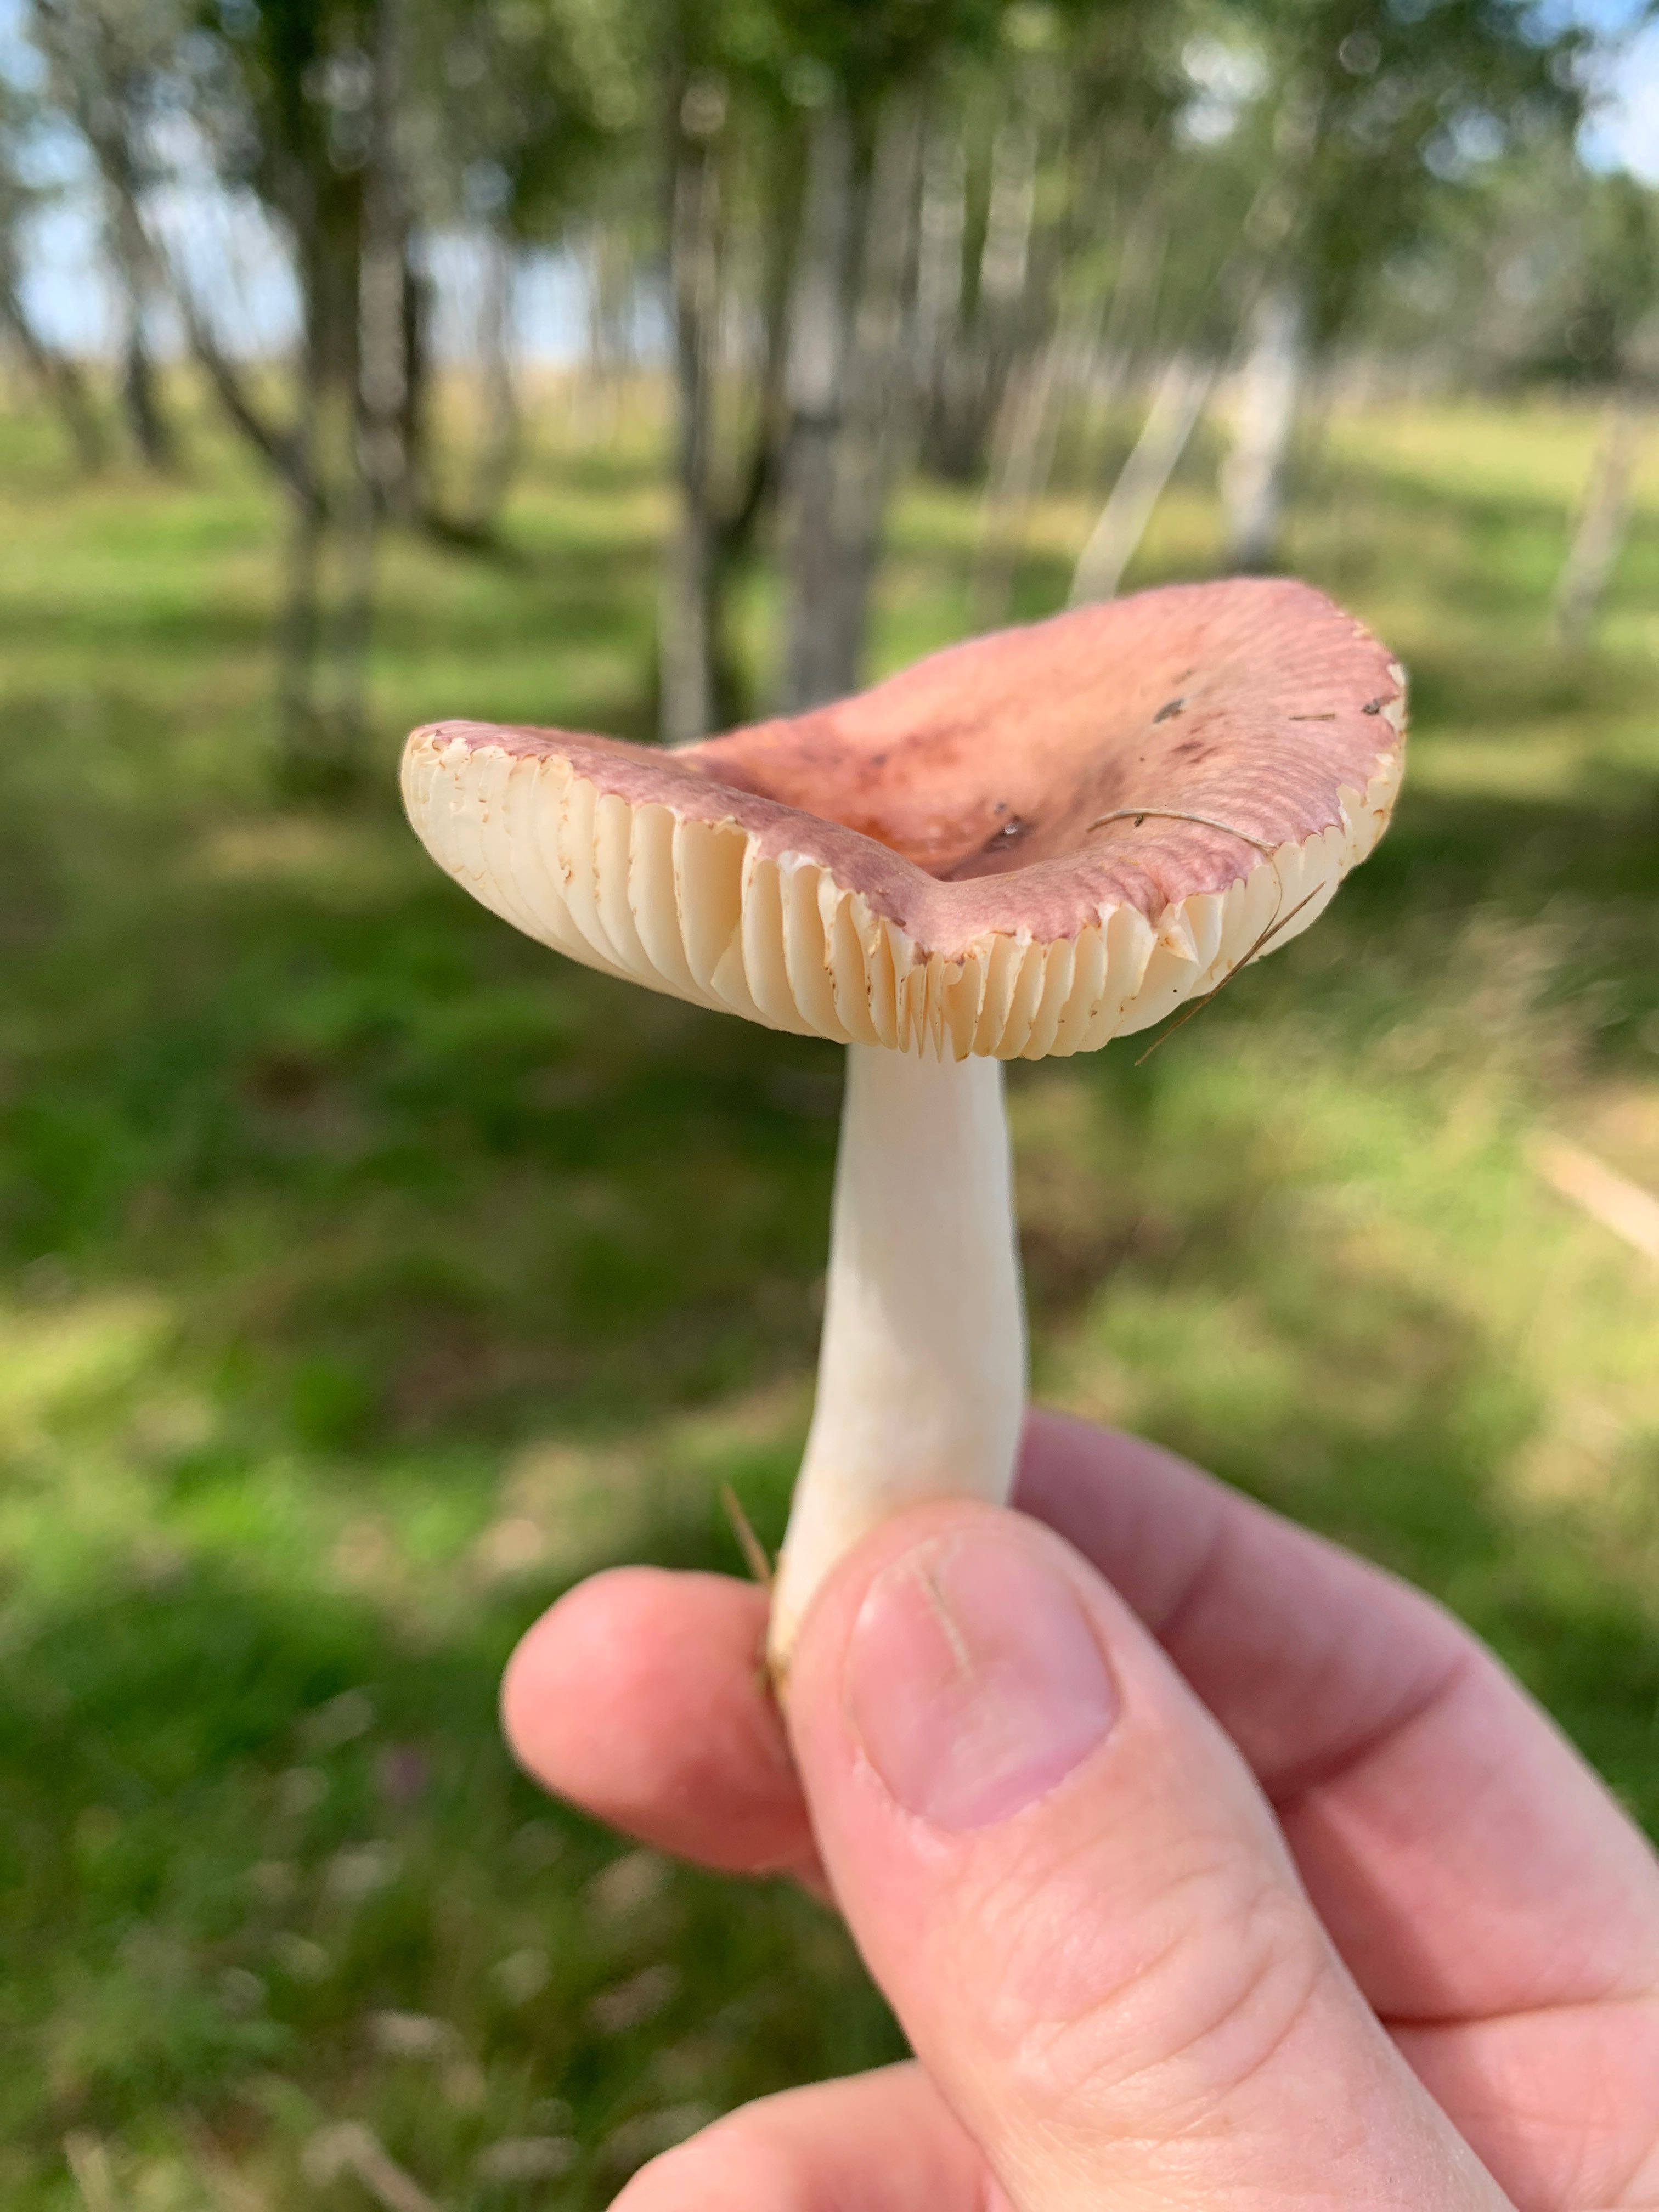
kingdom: Fungi
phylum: Basidiomycota
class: Agaricomycetes
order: Russulales
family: Russulaceae
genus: Russula
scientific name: Russula nitida
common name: året skørhat
